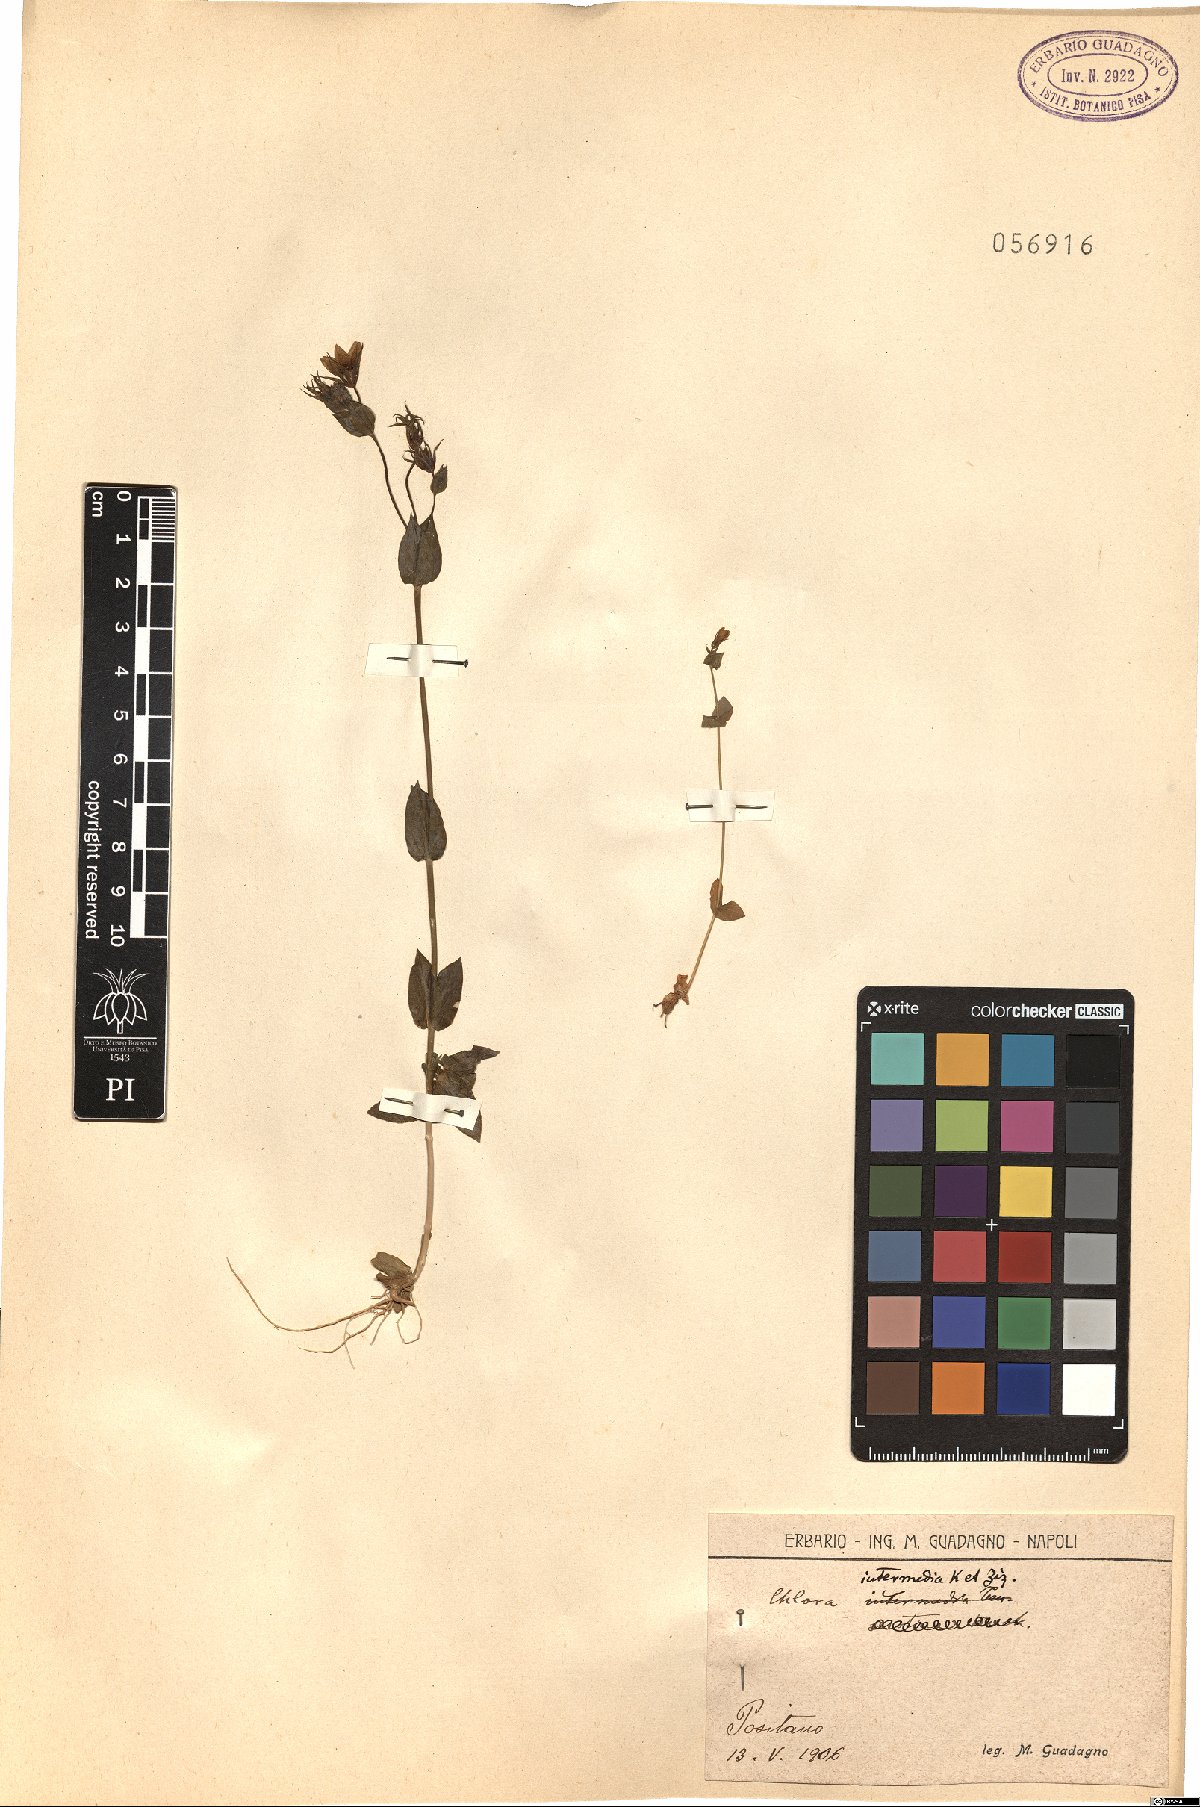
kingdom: Plantae
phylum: Tracheophyta
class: Magnoliopsida
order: Gentianales
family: Gentianaceae
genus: Blackstonia
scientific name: Blackstonia perfoliata
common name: Yellow-wort
